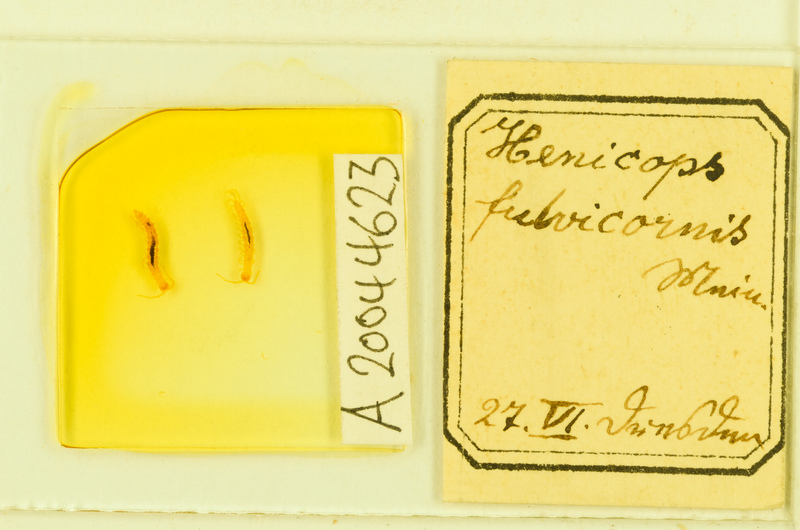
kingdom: Animalia
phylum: Arthropoda
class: Chilopoda
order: Lithobiomorpha
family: Henicopidae
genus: Lamyctes
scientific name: Lamyctes emarginatus
